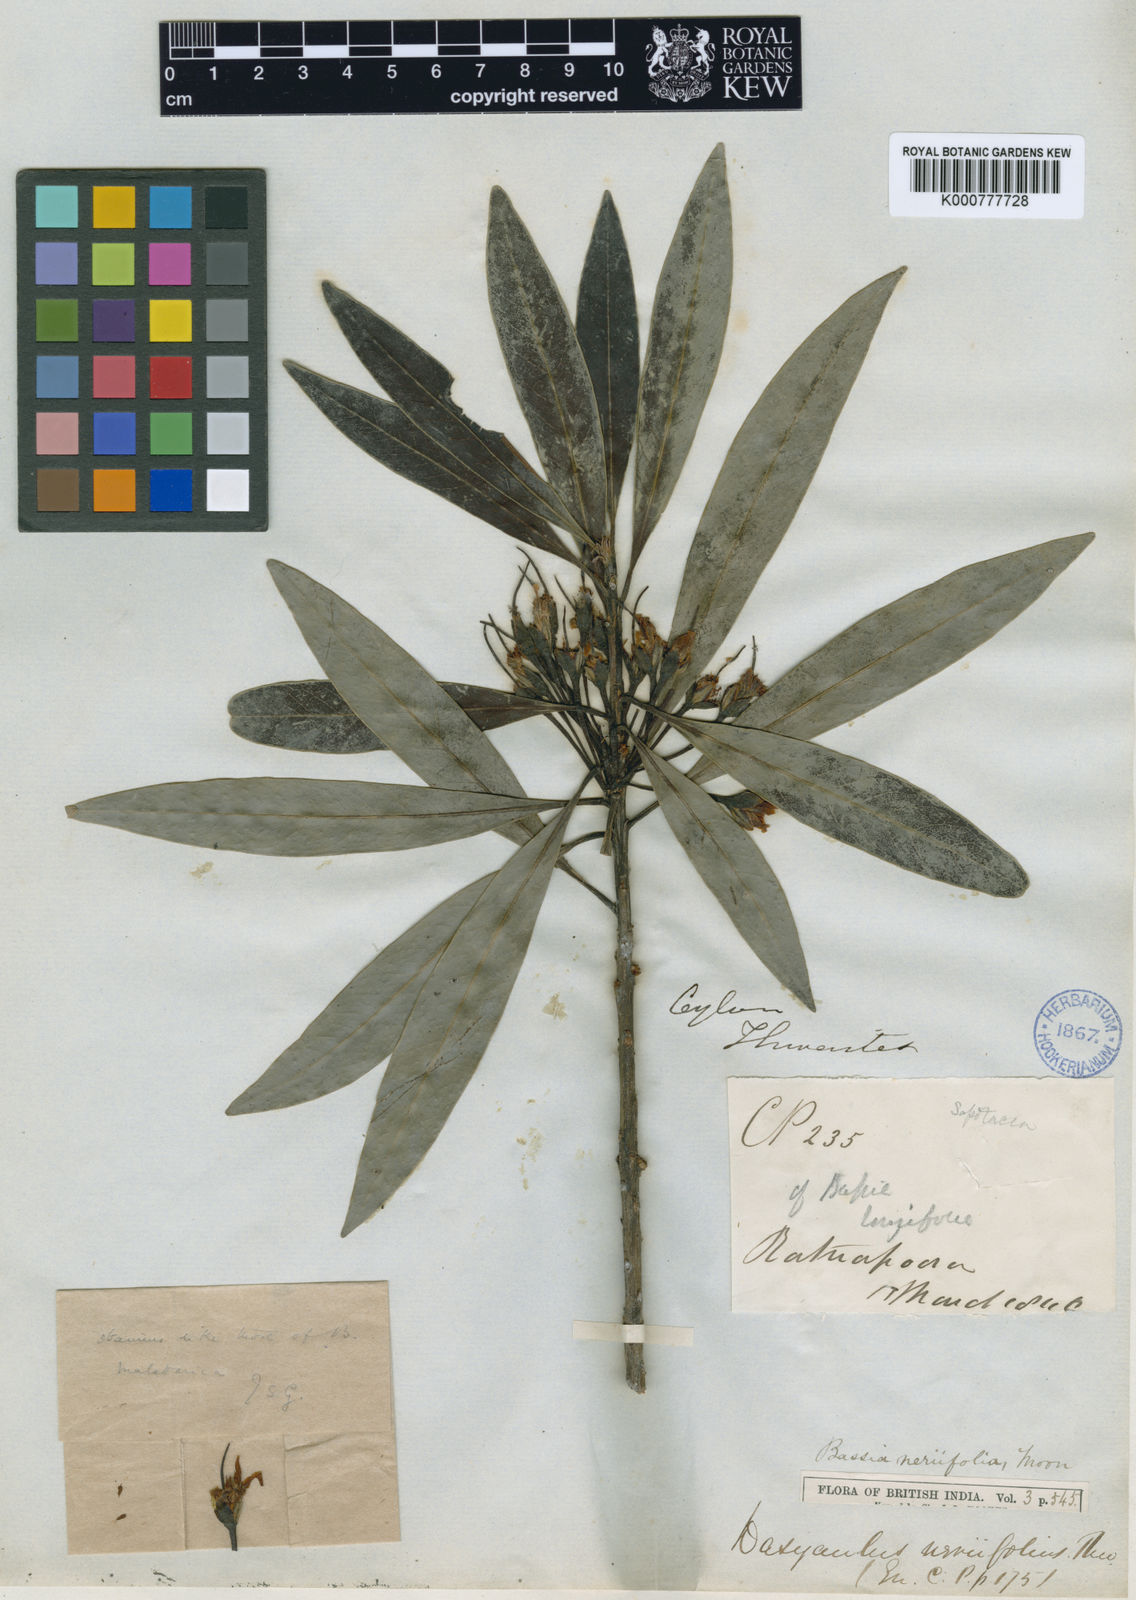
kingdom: Plantae
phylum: Tracheophyta
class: Magnoliopsida
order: Ericales
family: Sapotaceae
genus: Madhuca
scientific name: Madhuca neriifolia
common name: Illipe butter tree
